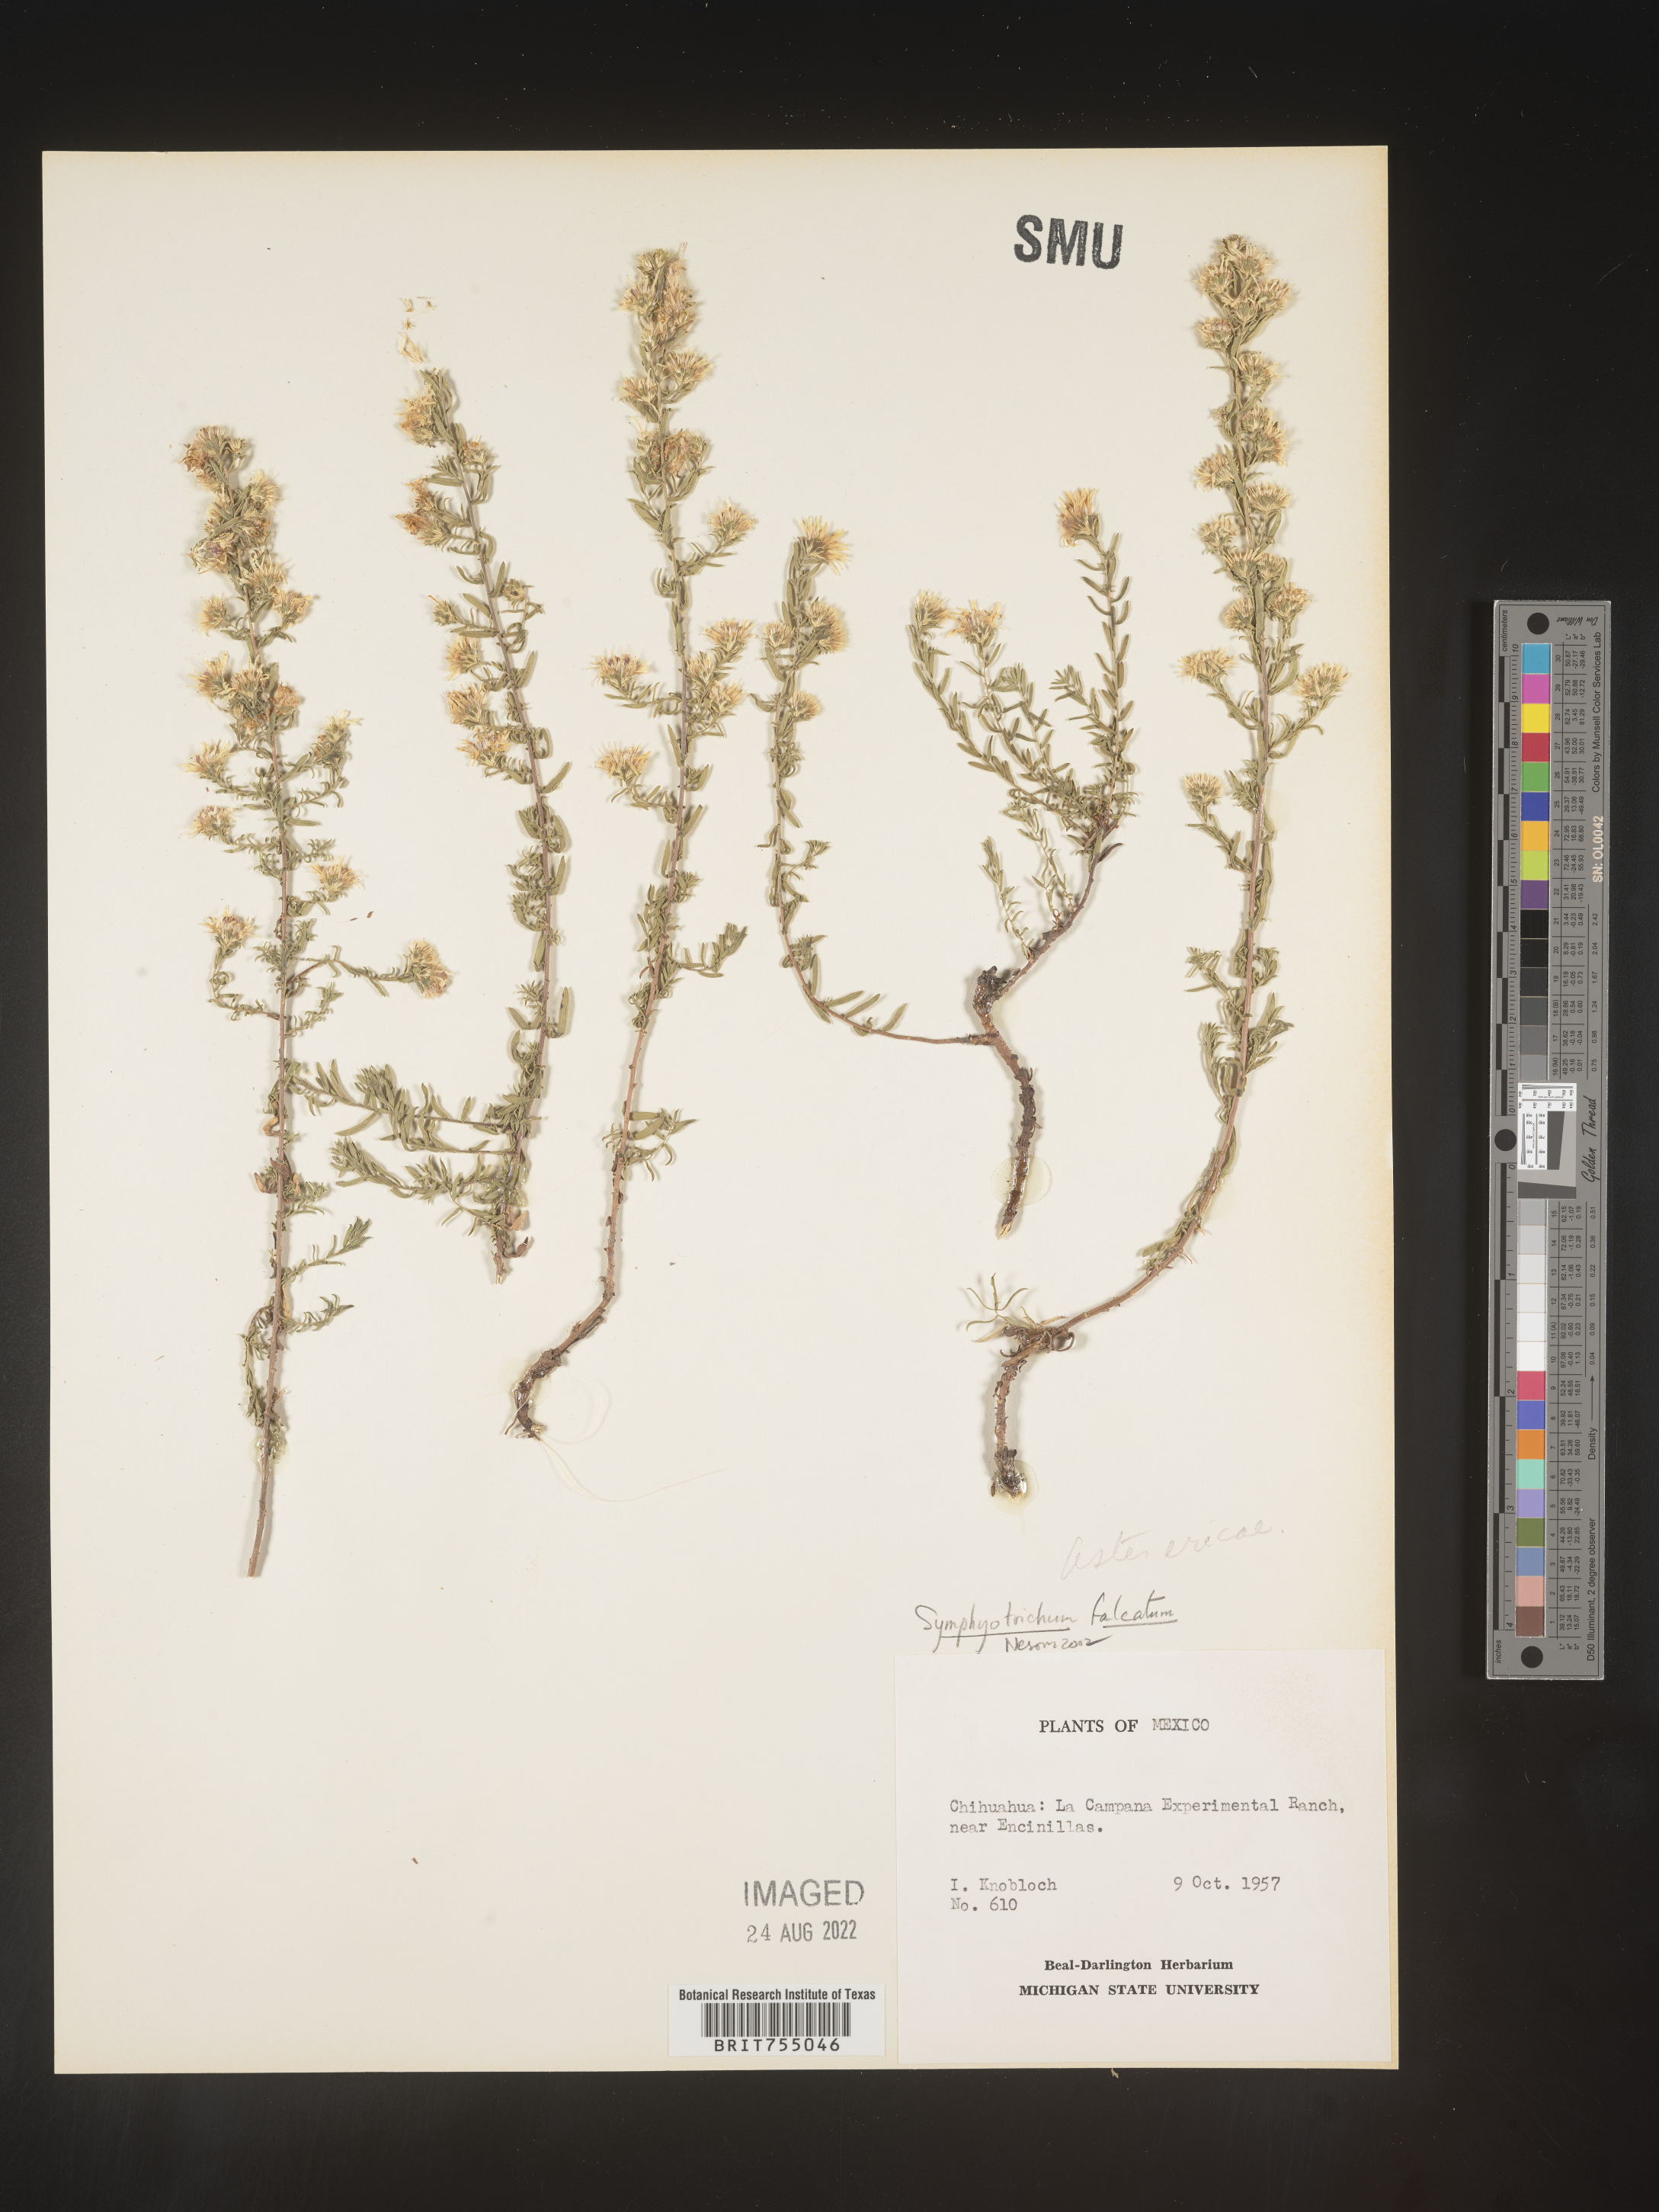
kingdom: Plantae
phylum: Tracheophyta
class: Magnoliopsida
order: Asterales
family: Asteraceae
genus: Symphyotrichum
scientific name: Symphyotrichum falcatum
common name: Creeping white prairie aster
